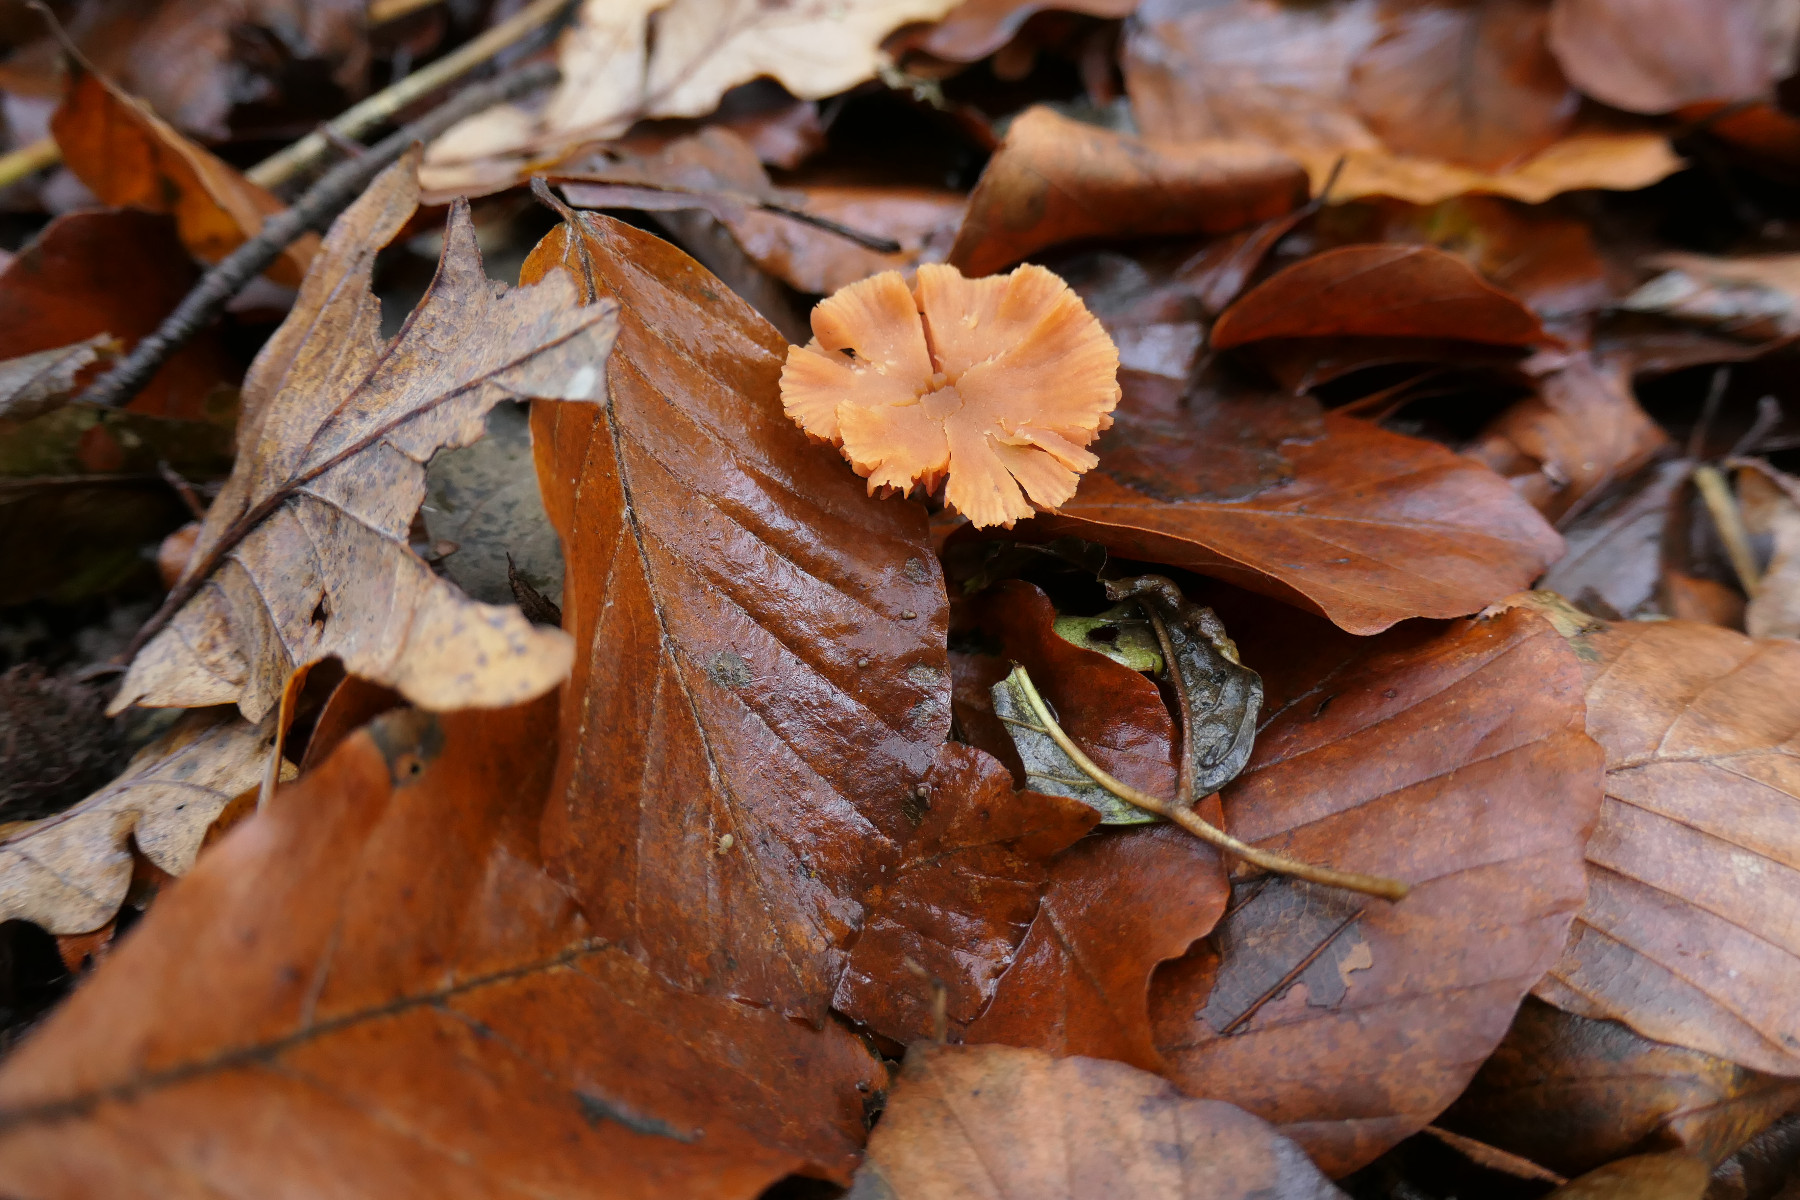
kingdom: Fungi
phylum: Basidiomycota
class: Agaricomycetes
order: Agaricales
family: Hydnangiaceae
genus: Laccaria
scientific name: Laccaria laccata
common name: rød ametysthat
